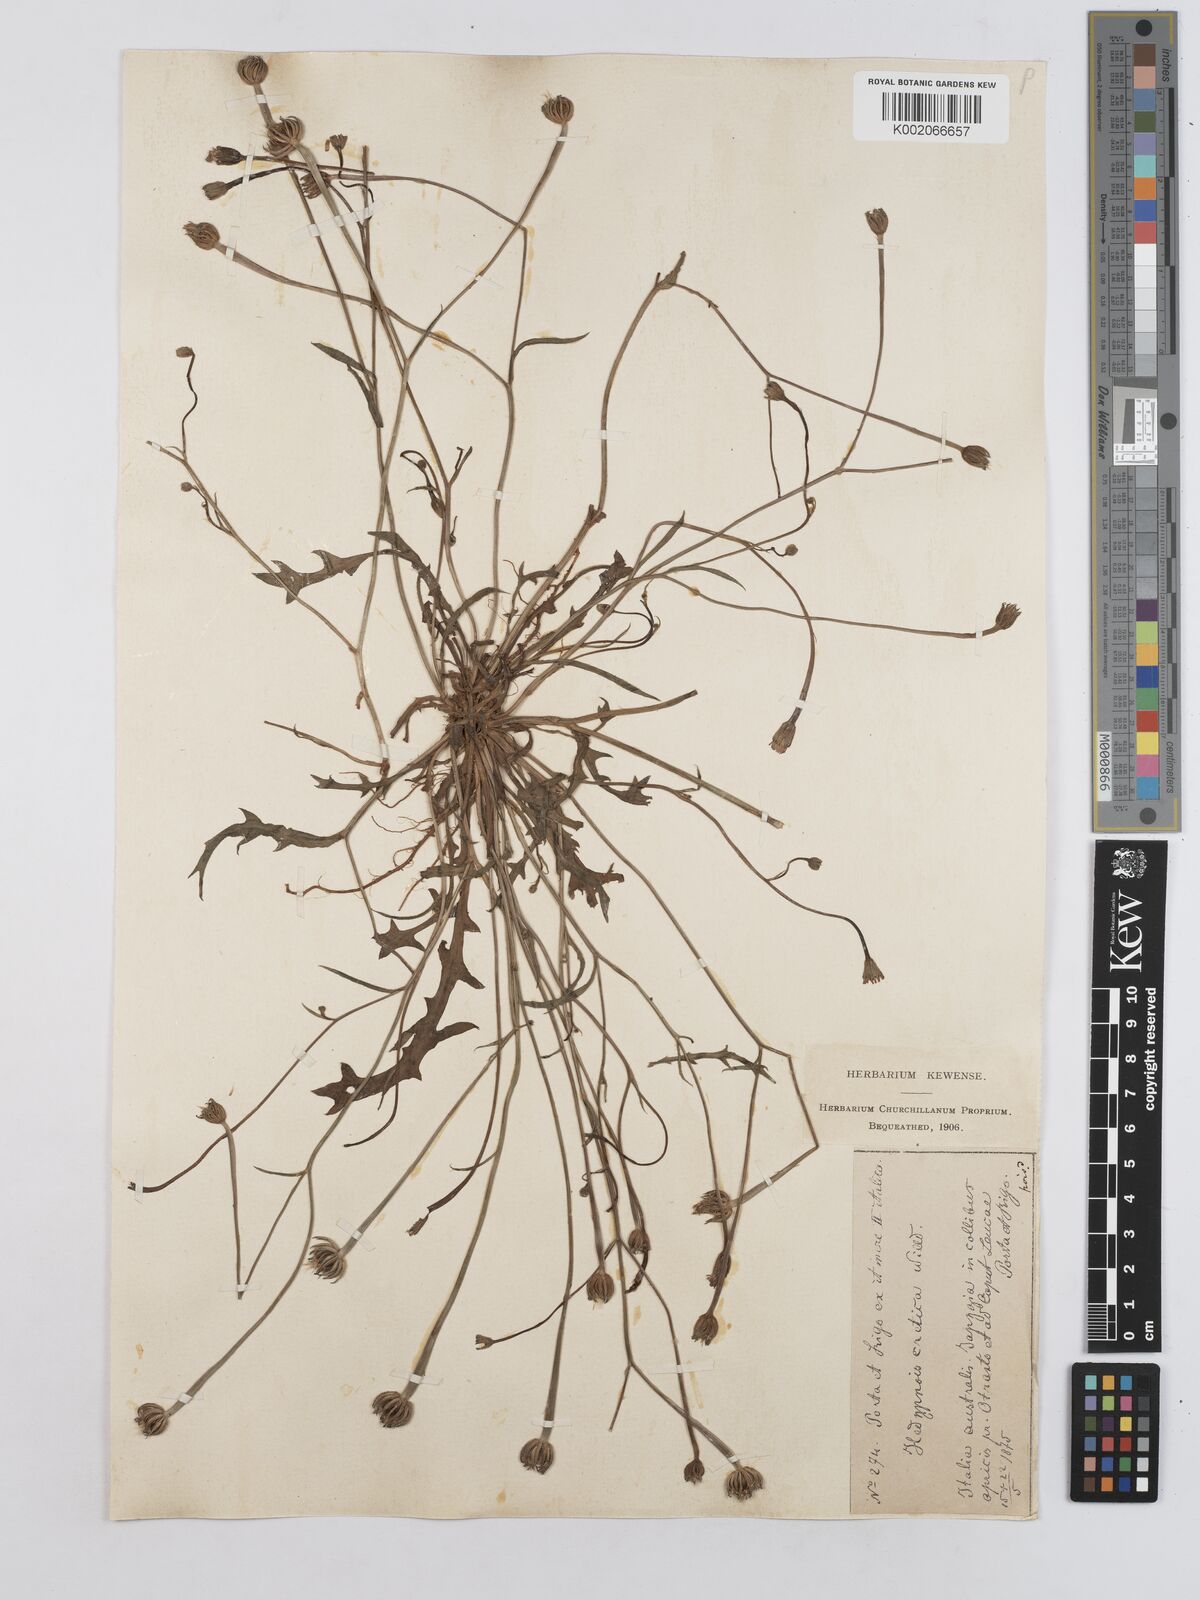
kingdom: Plantae
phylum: Tracheophyta
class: Magnoliopsida
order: Asterales
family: Asteraceae
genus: Hedypnois
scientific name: Hedypnois rhagadioloides
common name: Cretan weed
